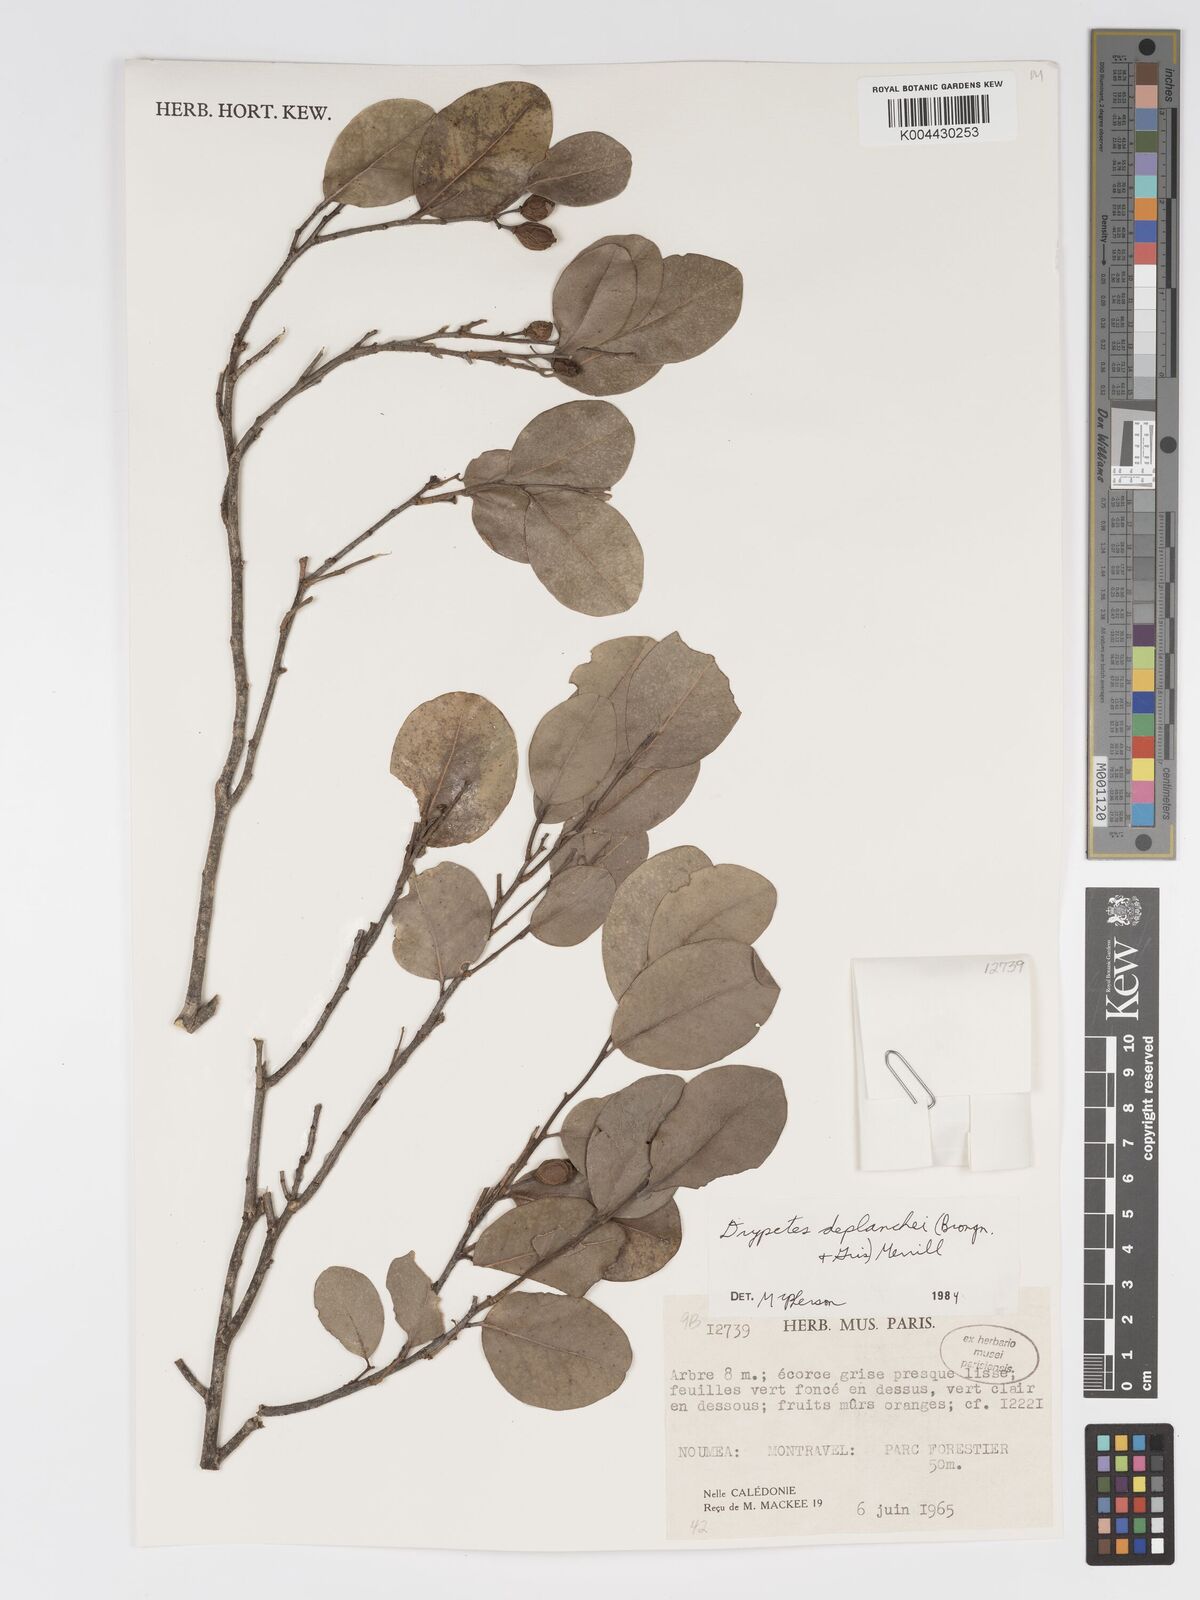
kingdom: Plantae
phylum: Tracheophyta
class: Magnoliopsida
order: Malpighiales
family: Putranjivaceae
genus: Drypetes
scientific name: Drypetes deplanchei
